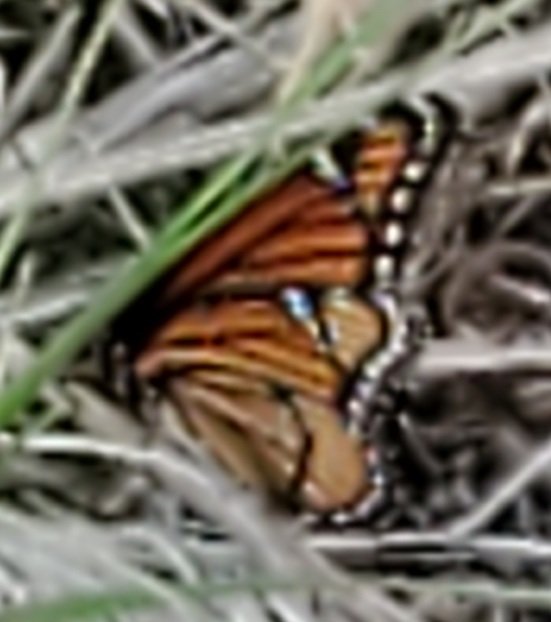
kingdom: Animalia
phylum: Arthropoda
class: Insecta
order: Lepidoptera
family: Nymphalidae
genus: Limenitis
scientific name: Limenitis archippus
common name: Viceroy
